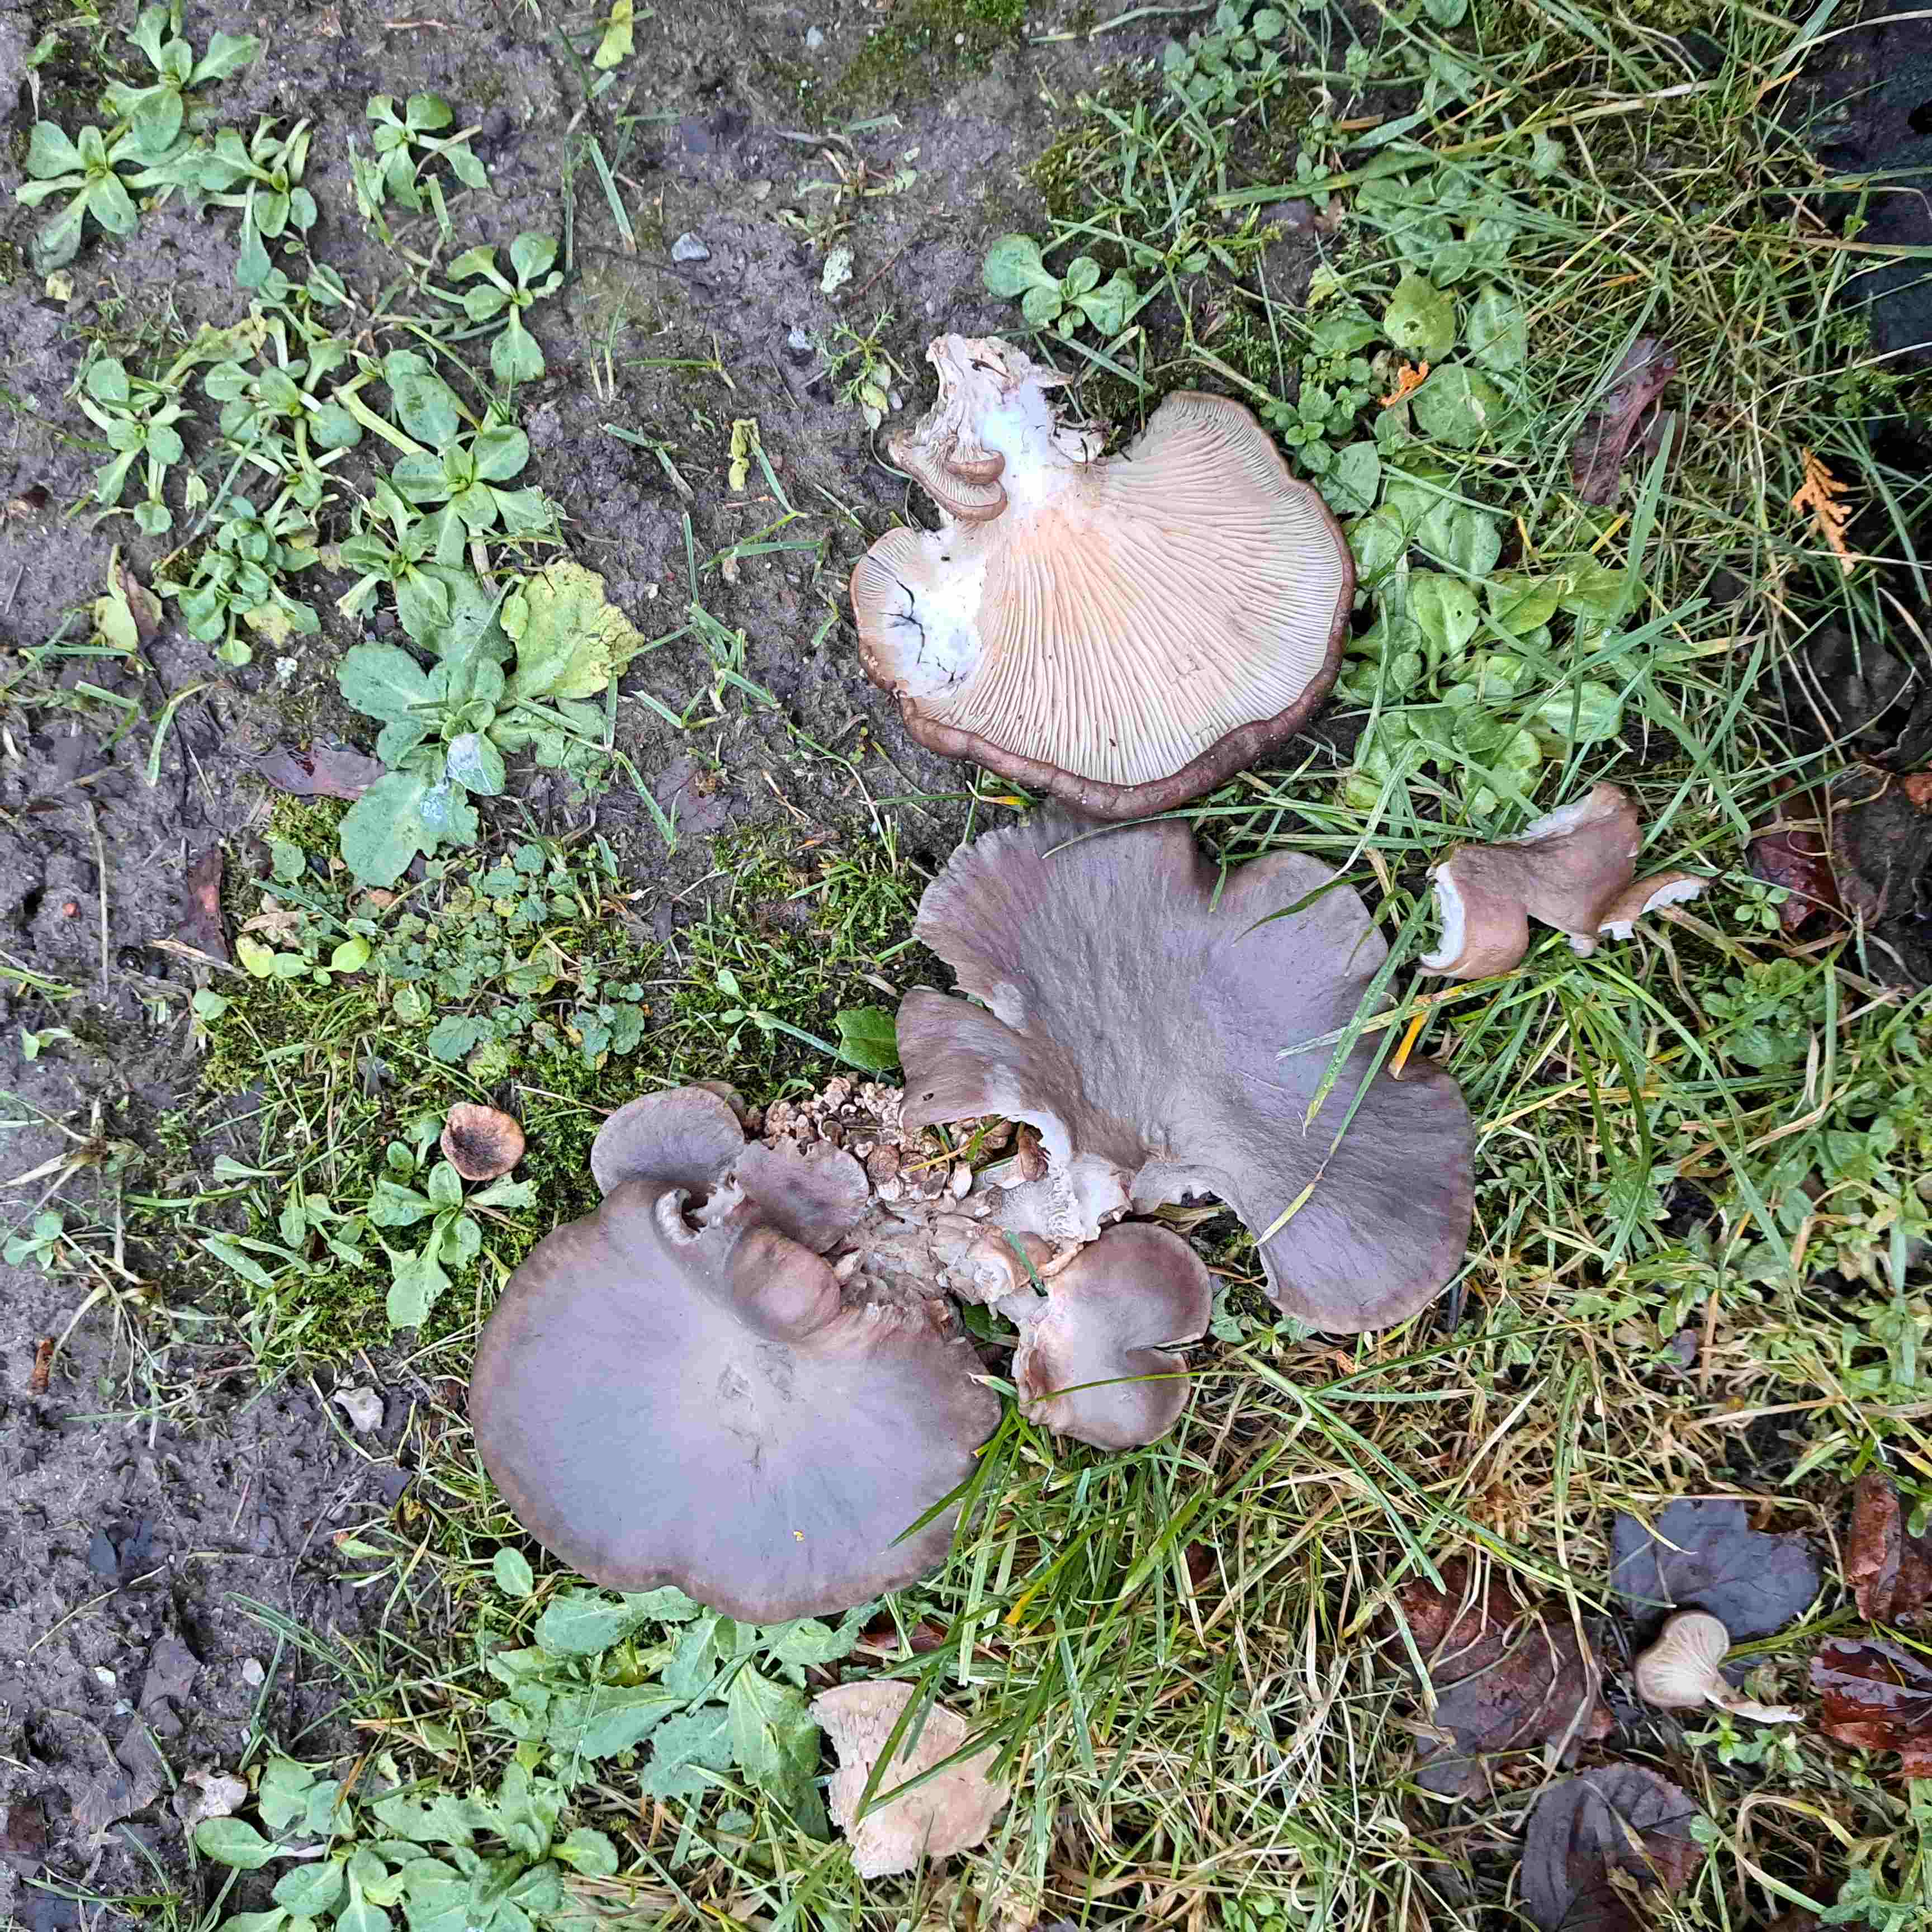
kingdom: Fungi
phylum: Basidiomycota
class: Agaricomycetes
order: Agaricales
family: Sarcomyxaceae
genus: Sarcomyxa
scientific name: Sarcomyxa serotina
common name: gummihat
